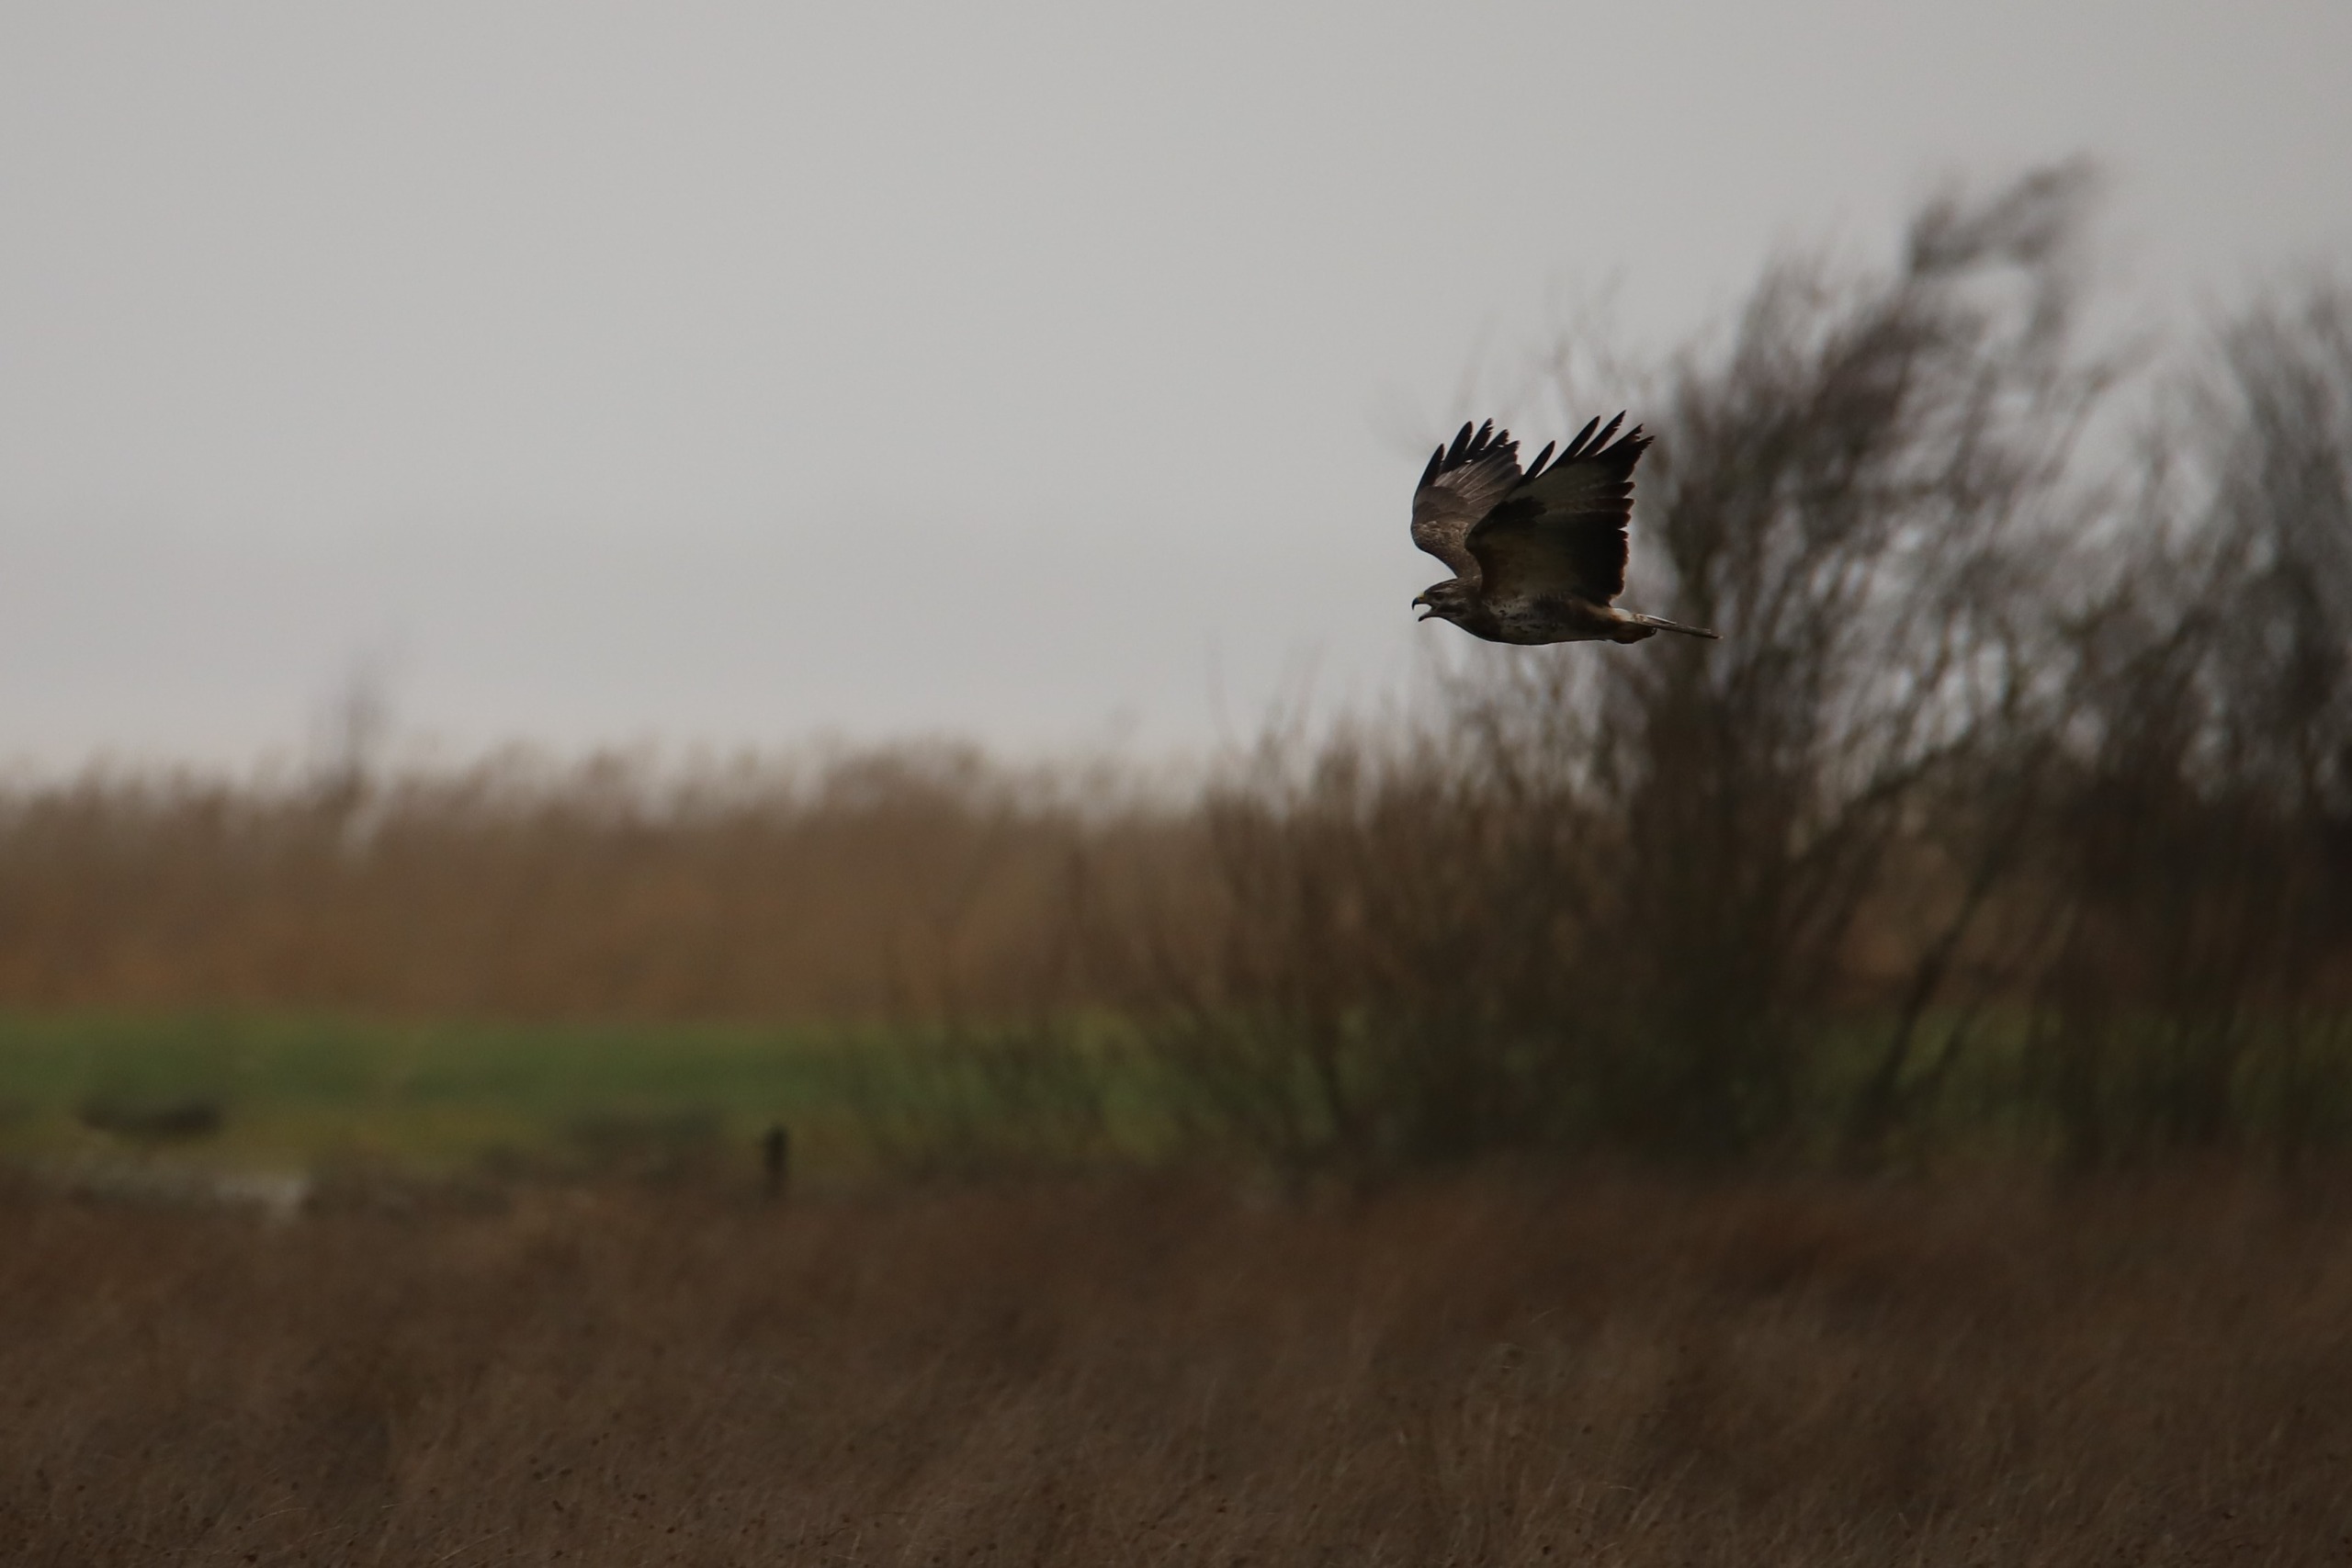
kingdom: Animalia
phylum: Chordata
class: Aves
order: Accipitriformes
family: Accipitridae
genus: Buteo
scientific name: Buteo buteo
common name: Musvåge
